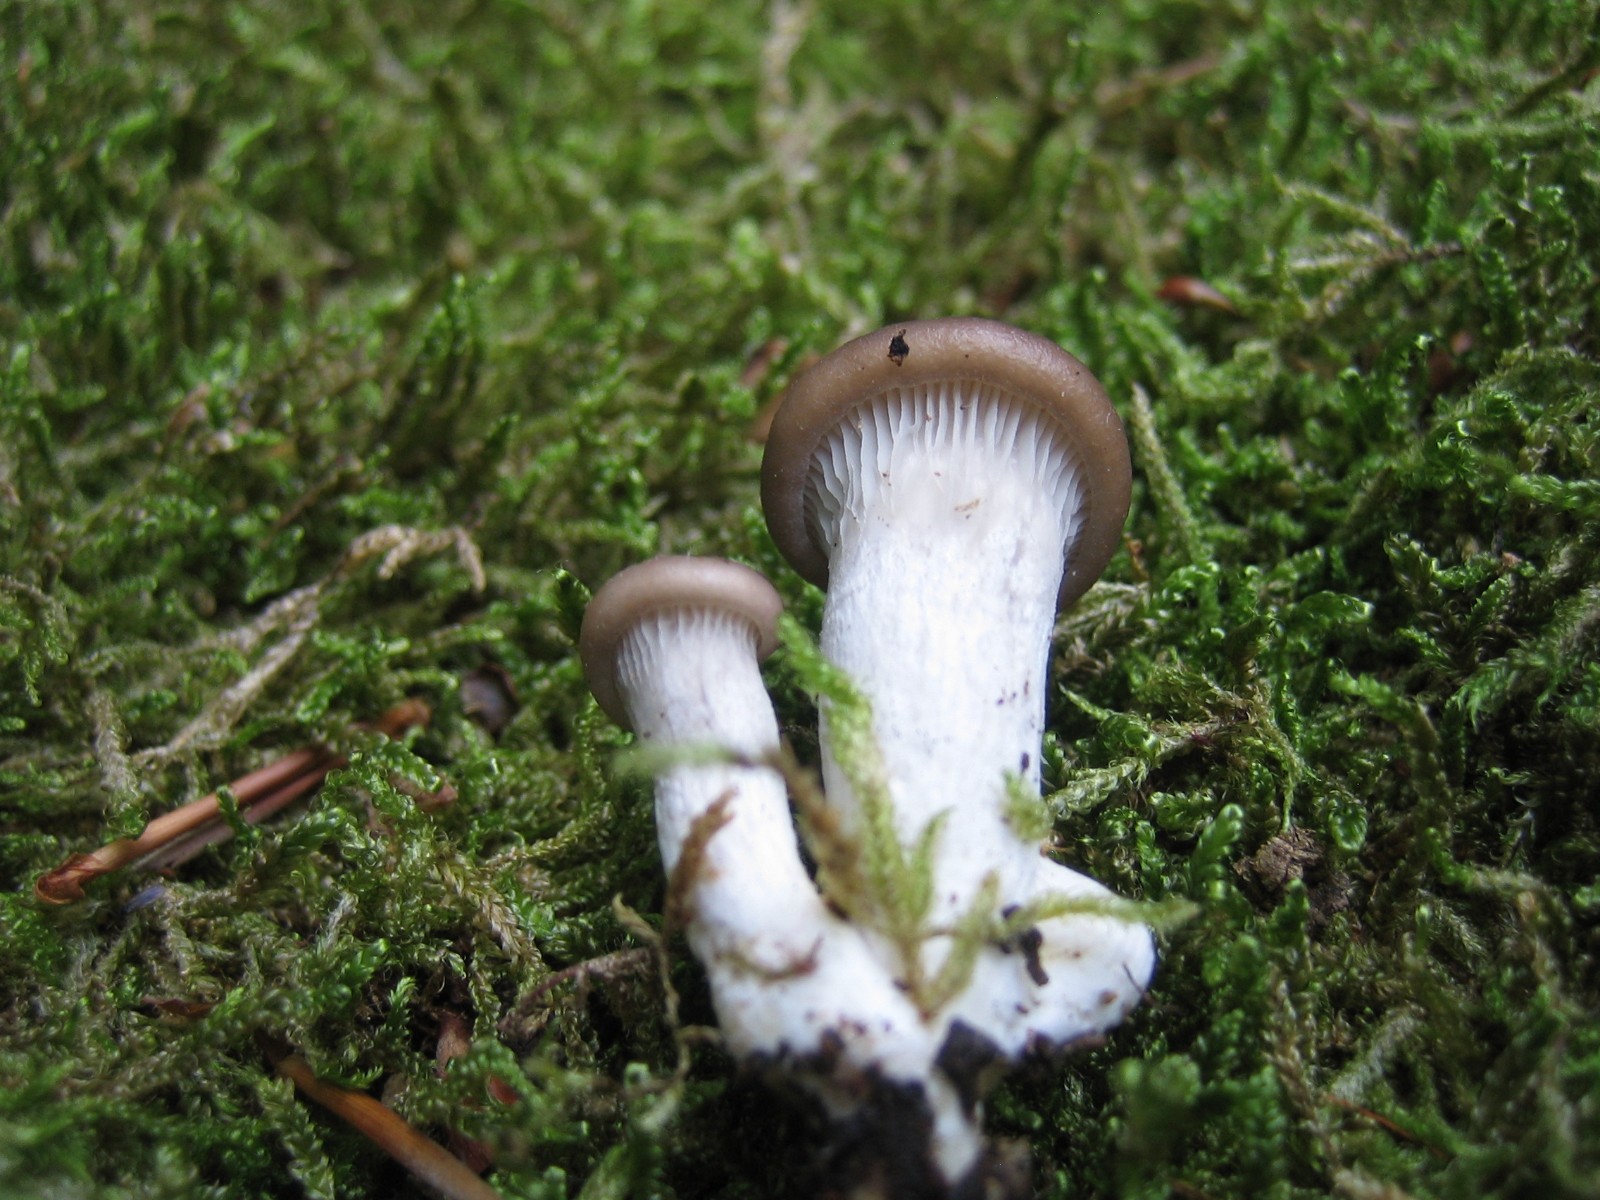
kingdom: Fungi
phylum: Basidiomycota
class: Agaricomycetes
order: Agaricales
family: Pleurotaceae
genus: Pleurotus
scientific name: Pleurotus pulmonarius
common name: sommer-østershat
